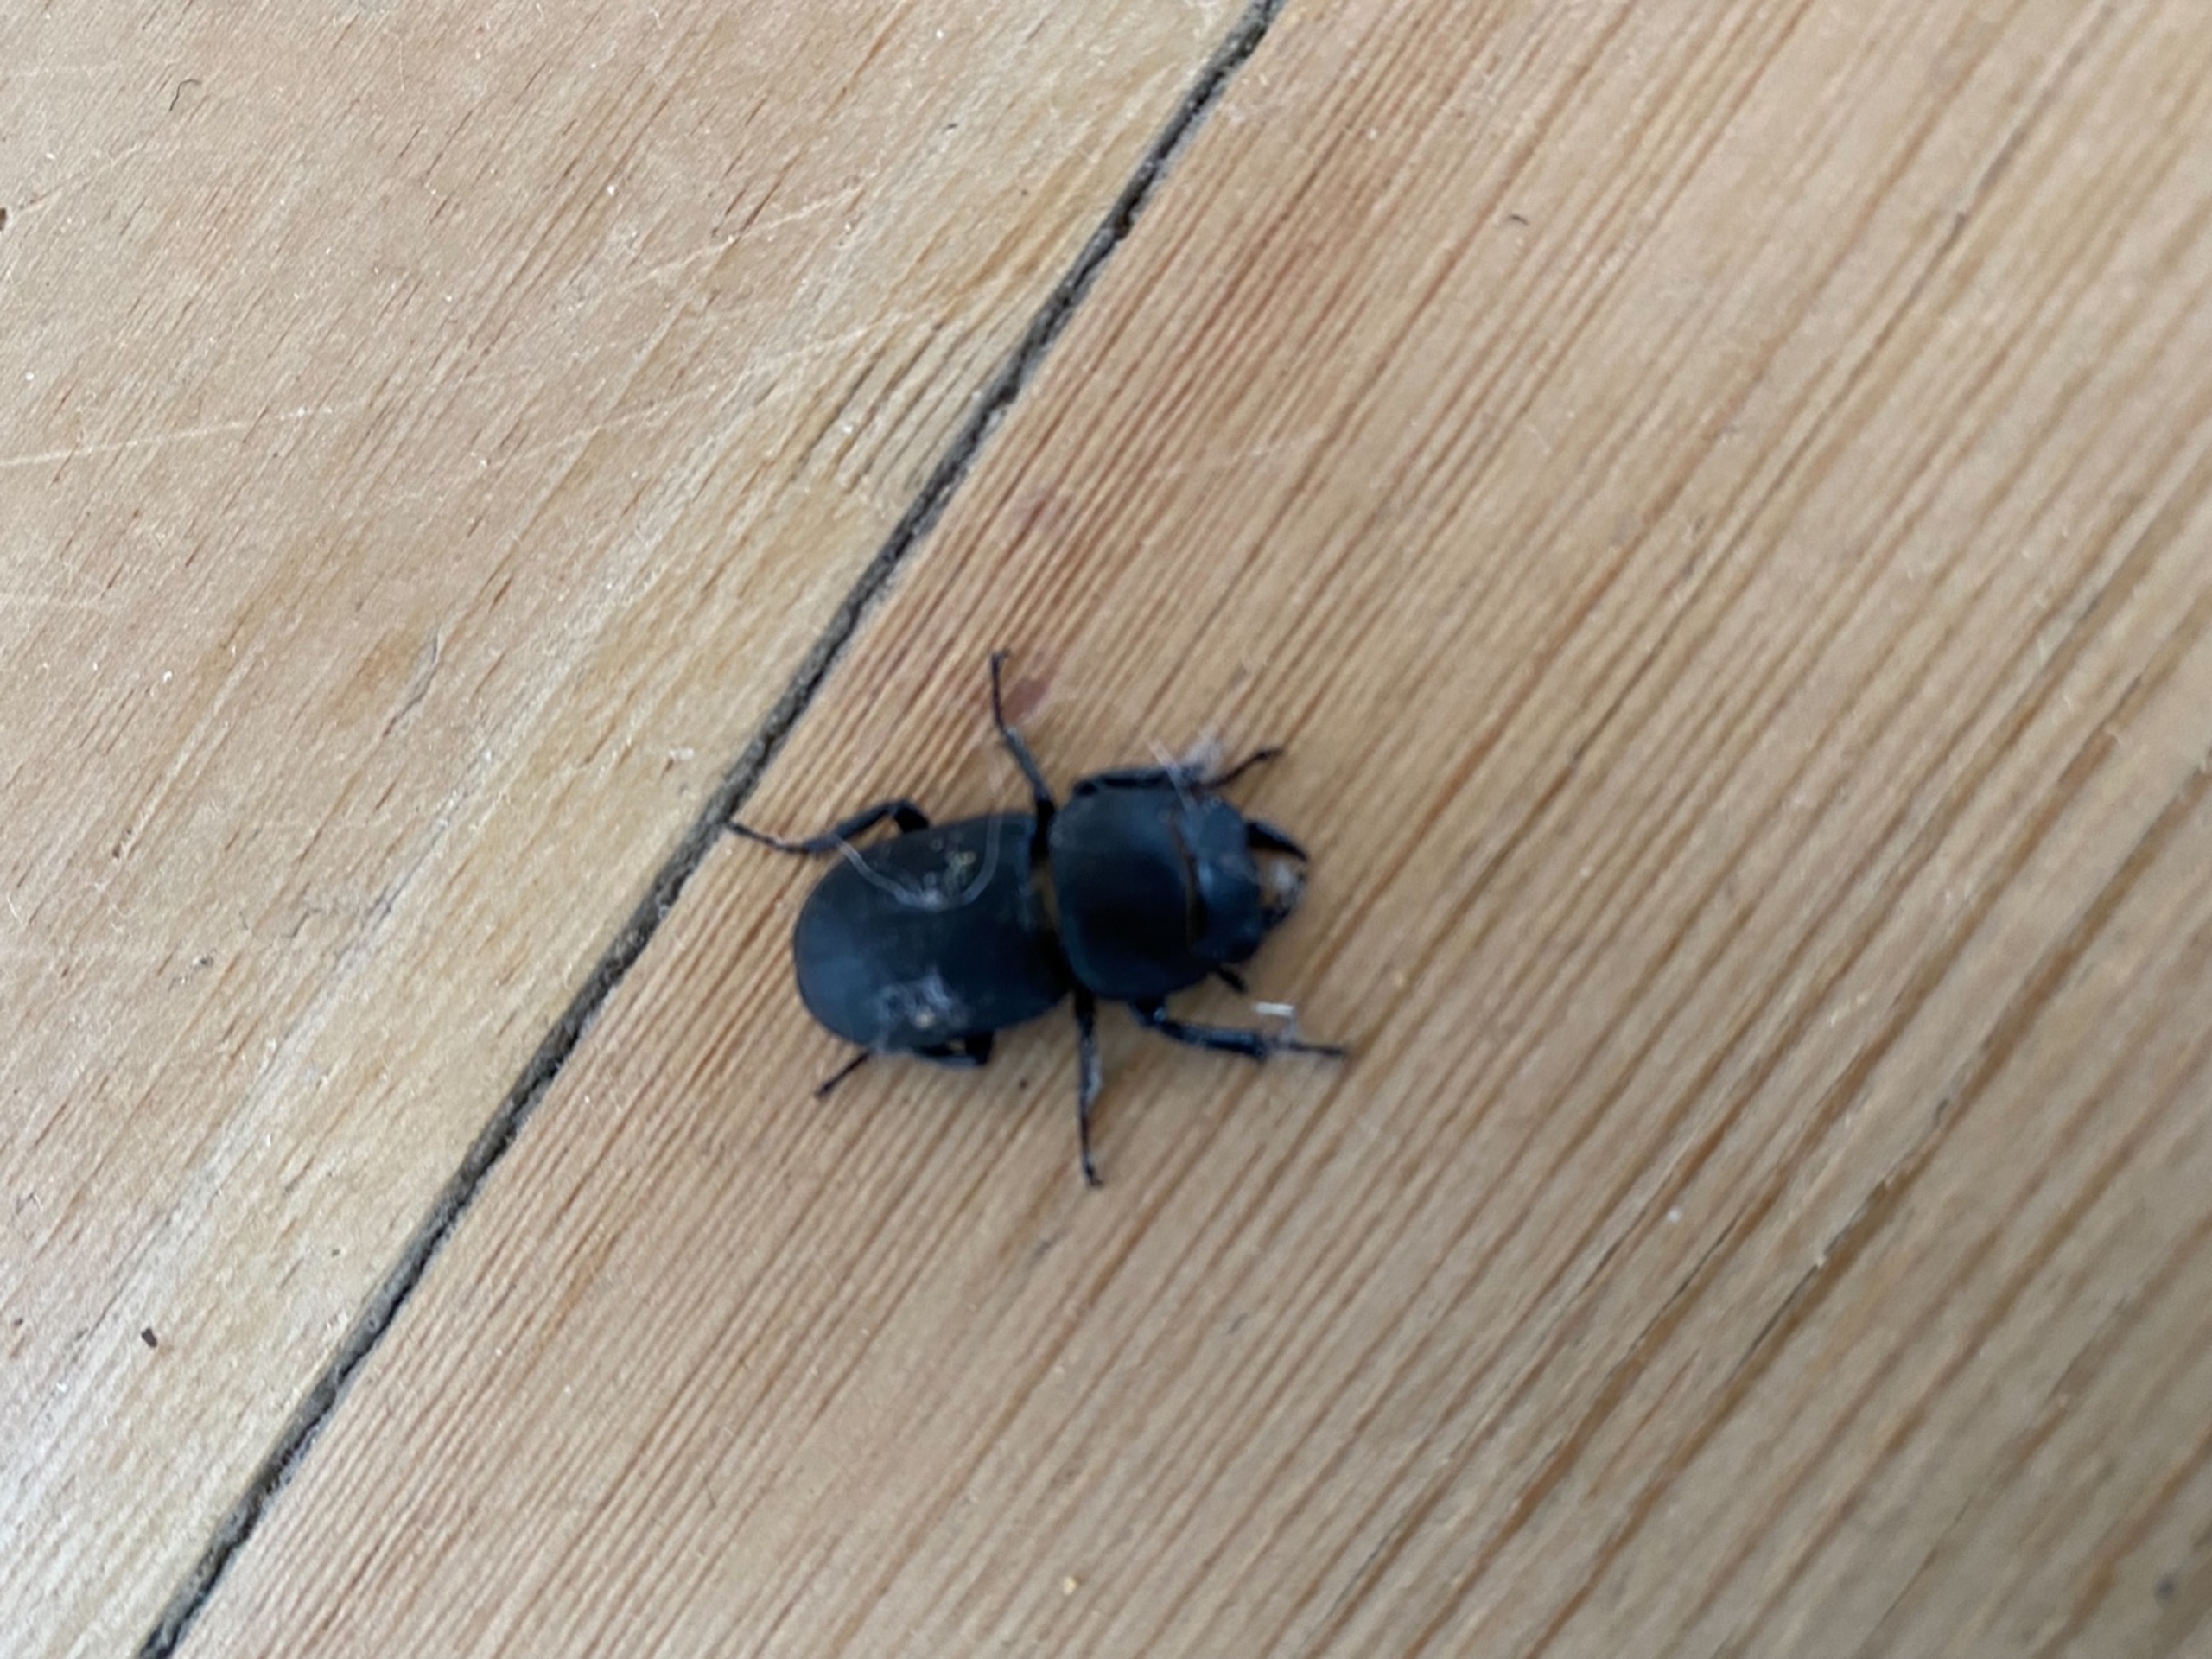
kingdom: Animalia
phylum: Arthropoda
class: Insecta
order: Coleoptera
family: Lucanidae
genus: Dorcus
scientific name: Dorcus parallelipipedus
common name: Bøghjort
